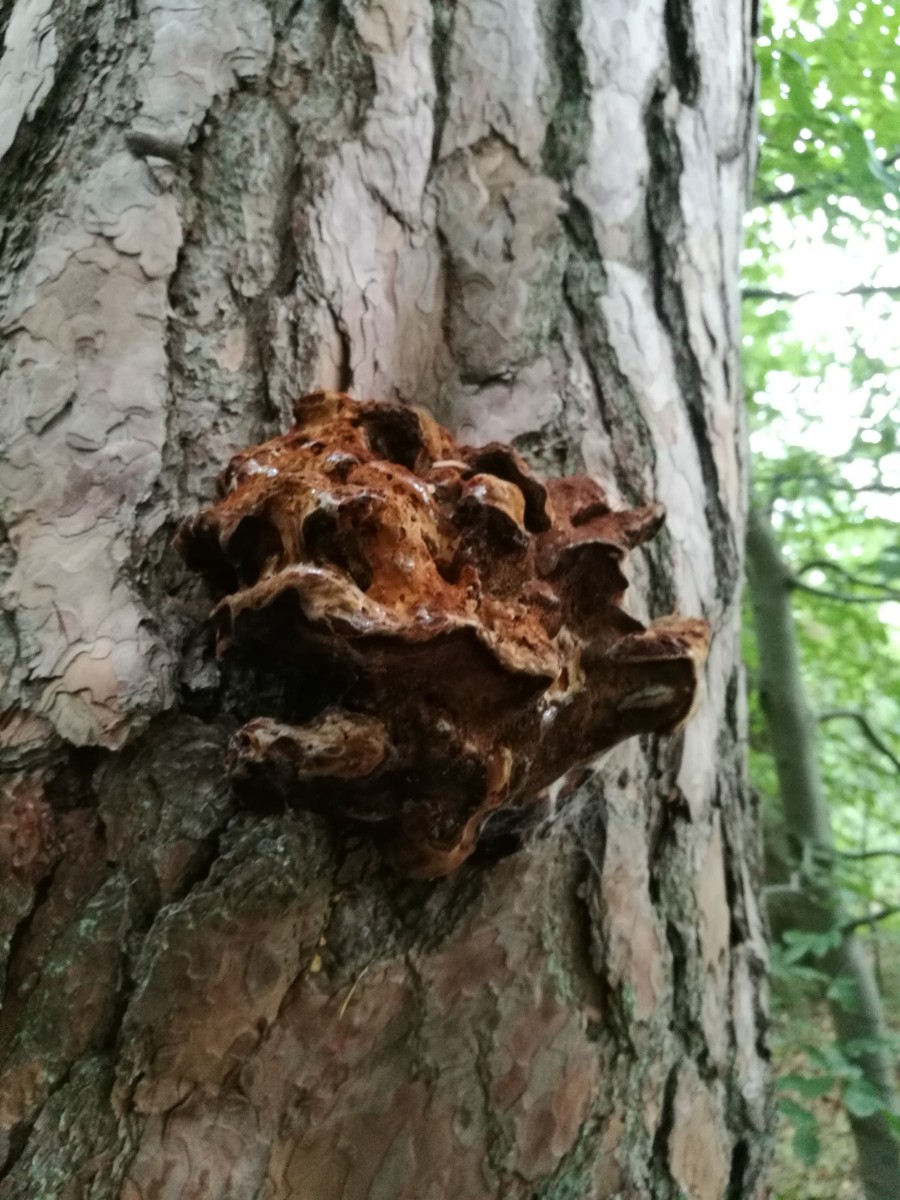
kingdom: Fungi
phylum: Basidiomycota
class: Agaricomycetes
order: Polyporales
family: Laetiporaceae
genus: Phaeolus
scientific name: Phaeolus schweinitzii
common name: brunporesvamp
